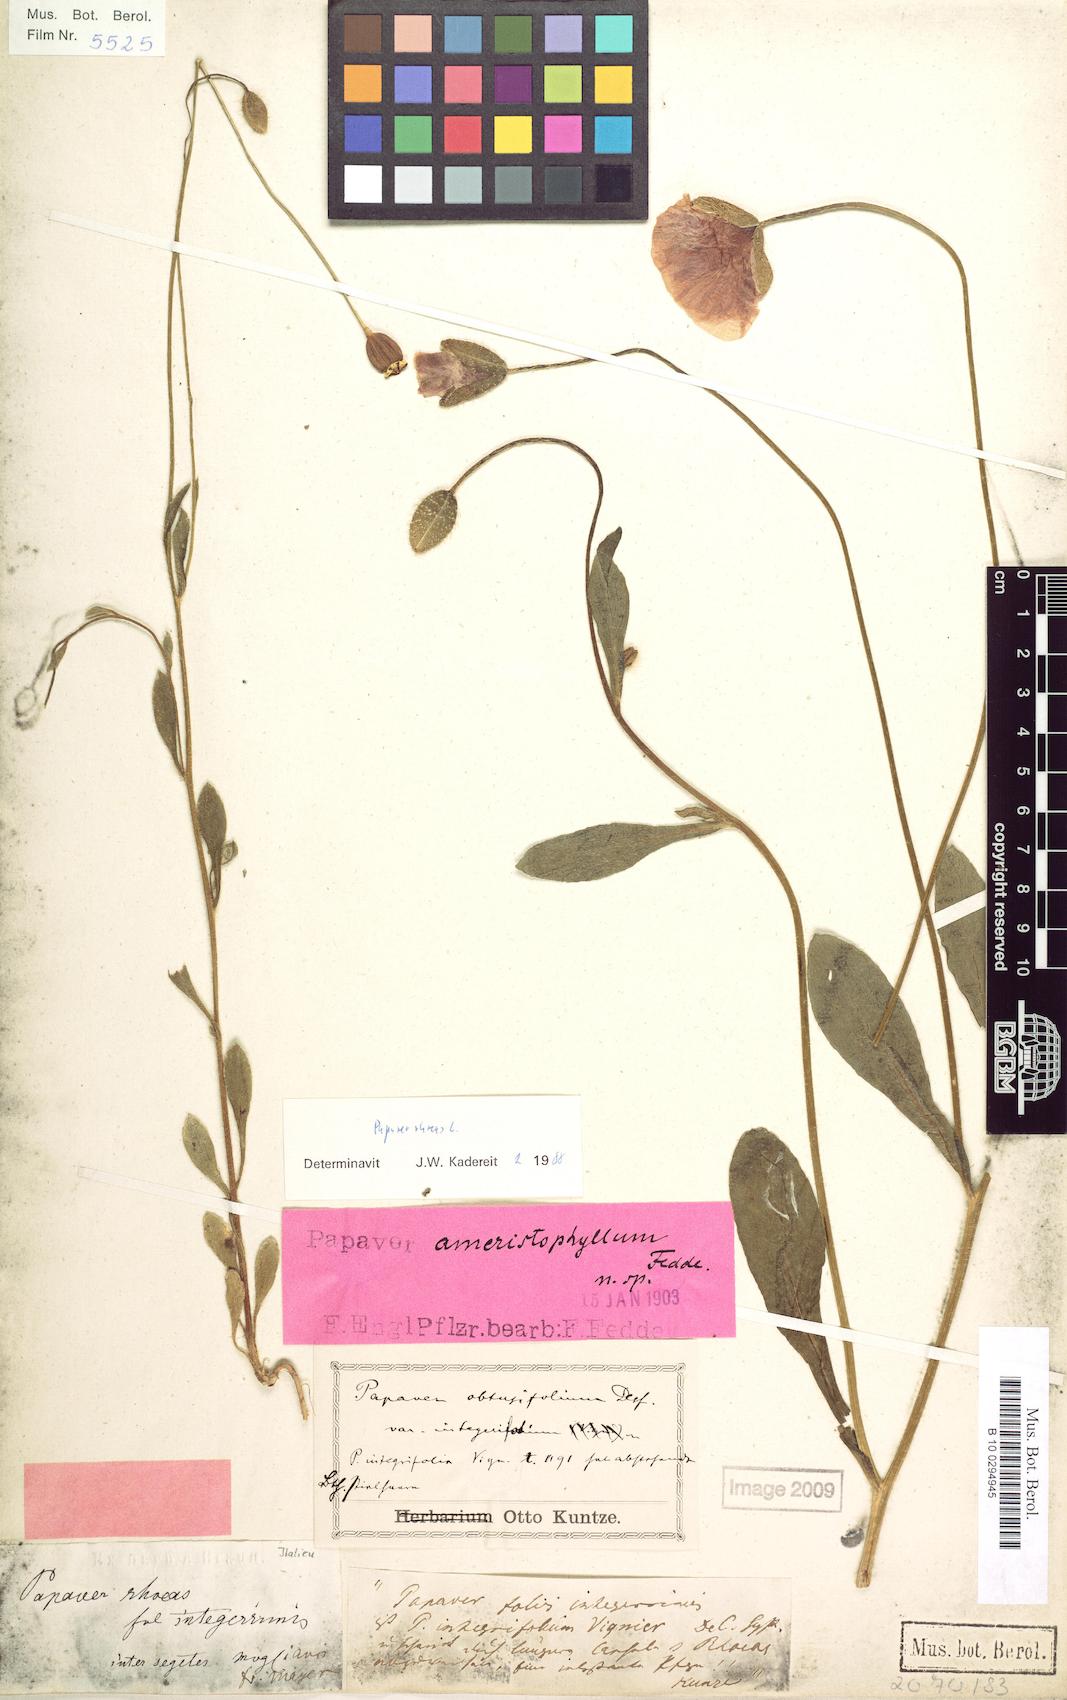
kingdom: Plantae
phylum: Tracheophyta
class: Magnoliopsida
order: Ranunculales
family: Papaveraceae
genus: Papaver
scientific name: Papaver rhoeas
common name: Corn poppy
